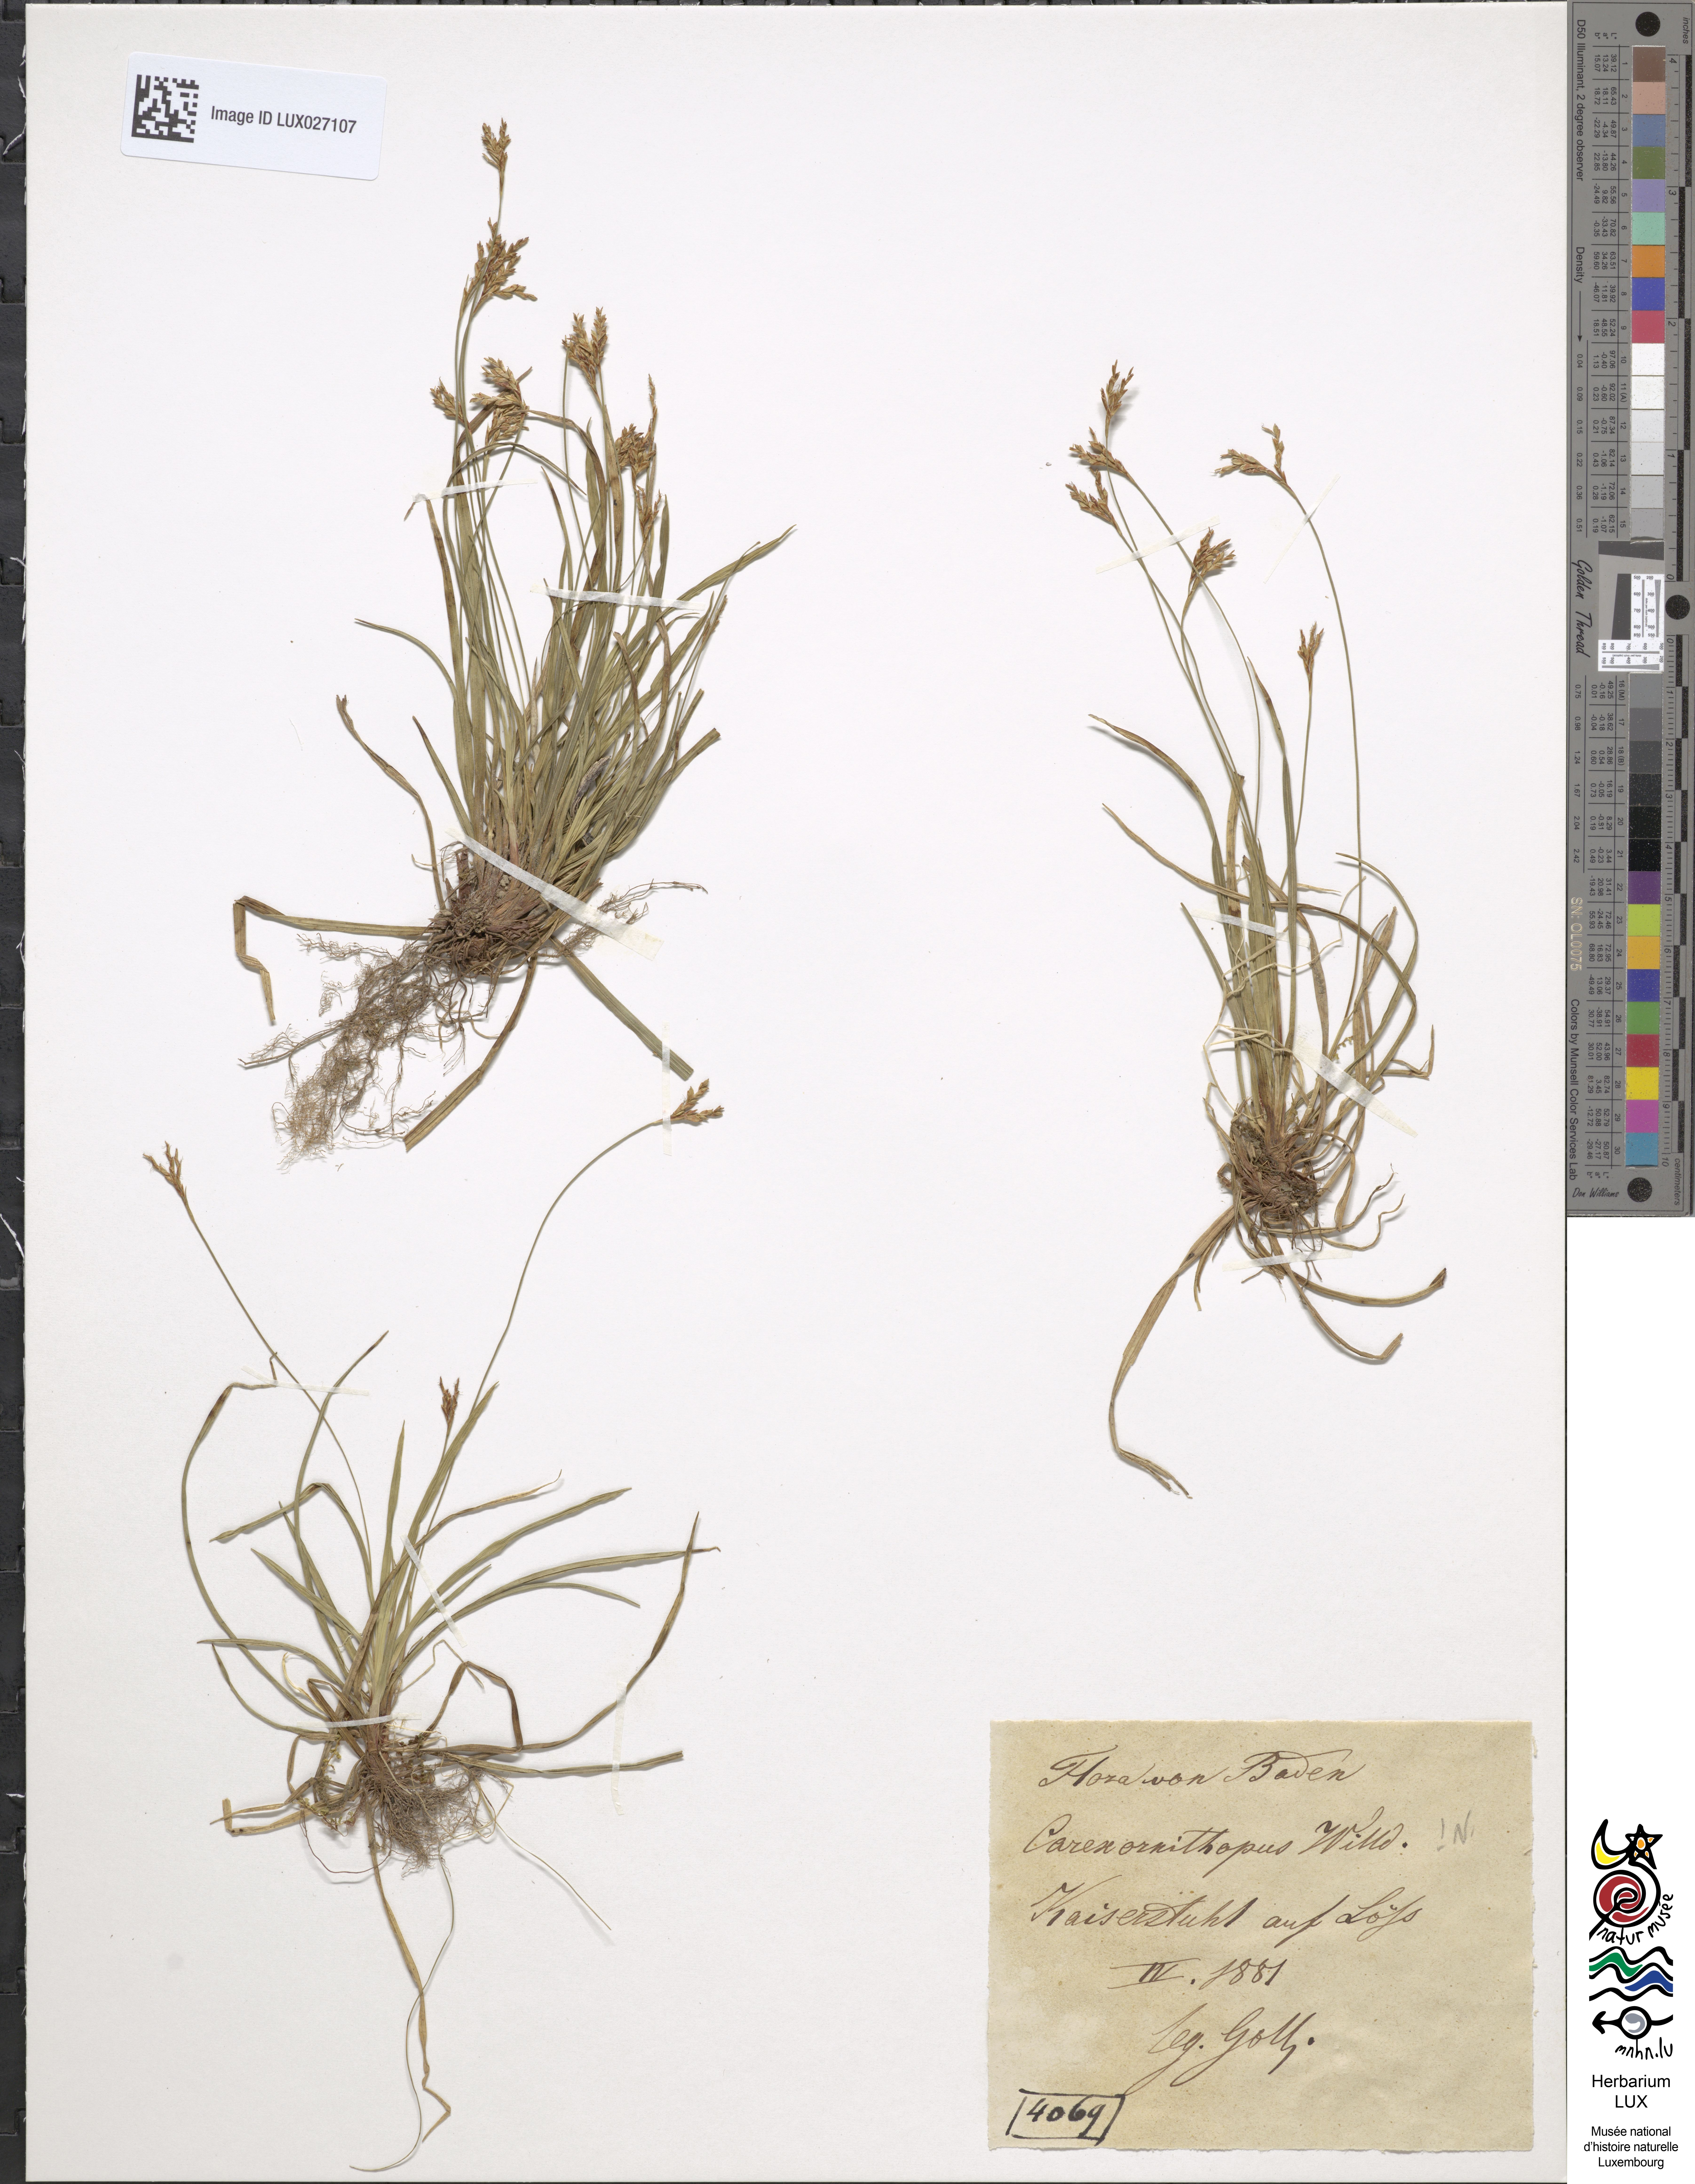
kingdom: Plantae
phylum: Tracheophyta
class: Liliopsida
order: Poales
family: Cyperaceae
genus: Carex
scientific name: Carex ornithopoda
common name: Bird's-foot sedge
